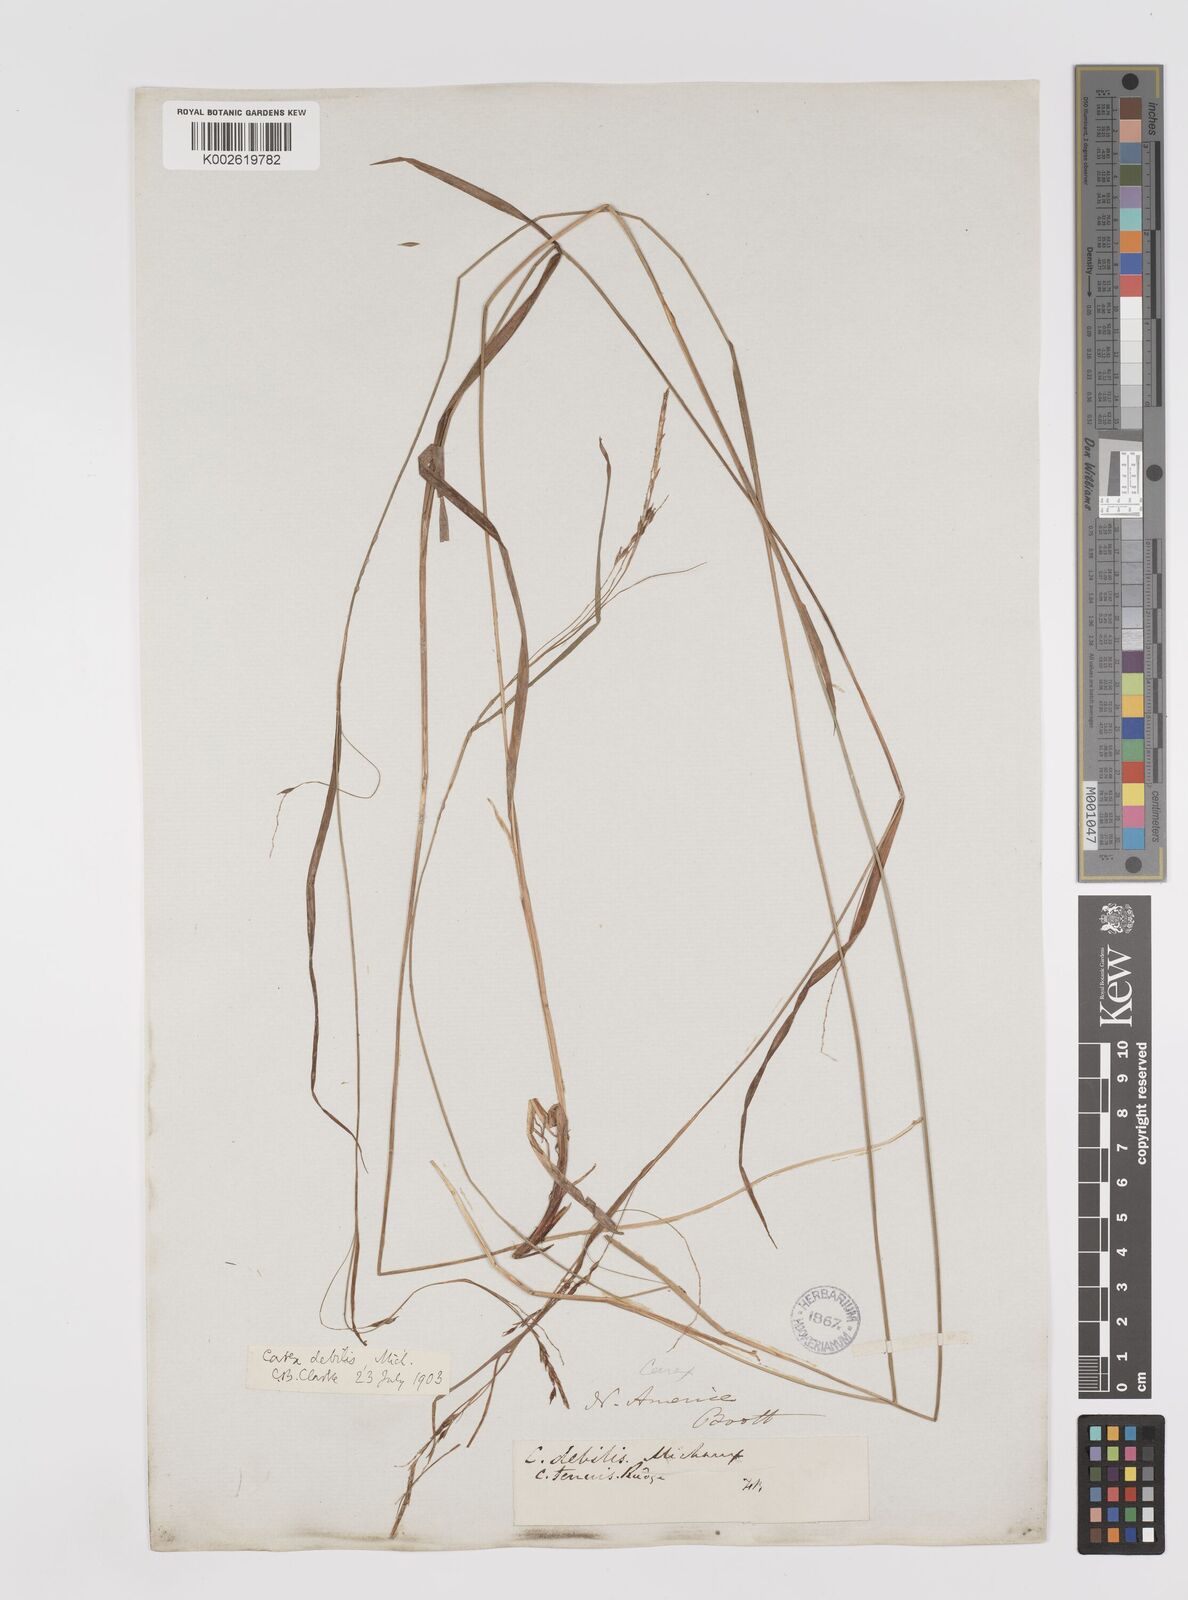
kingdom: Plantae
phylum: Tracheophyta
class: Liliopsida
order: Poales
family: Cyperaceae
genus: Carex
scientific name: Carex debilis
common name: White-edge sedge
